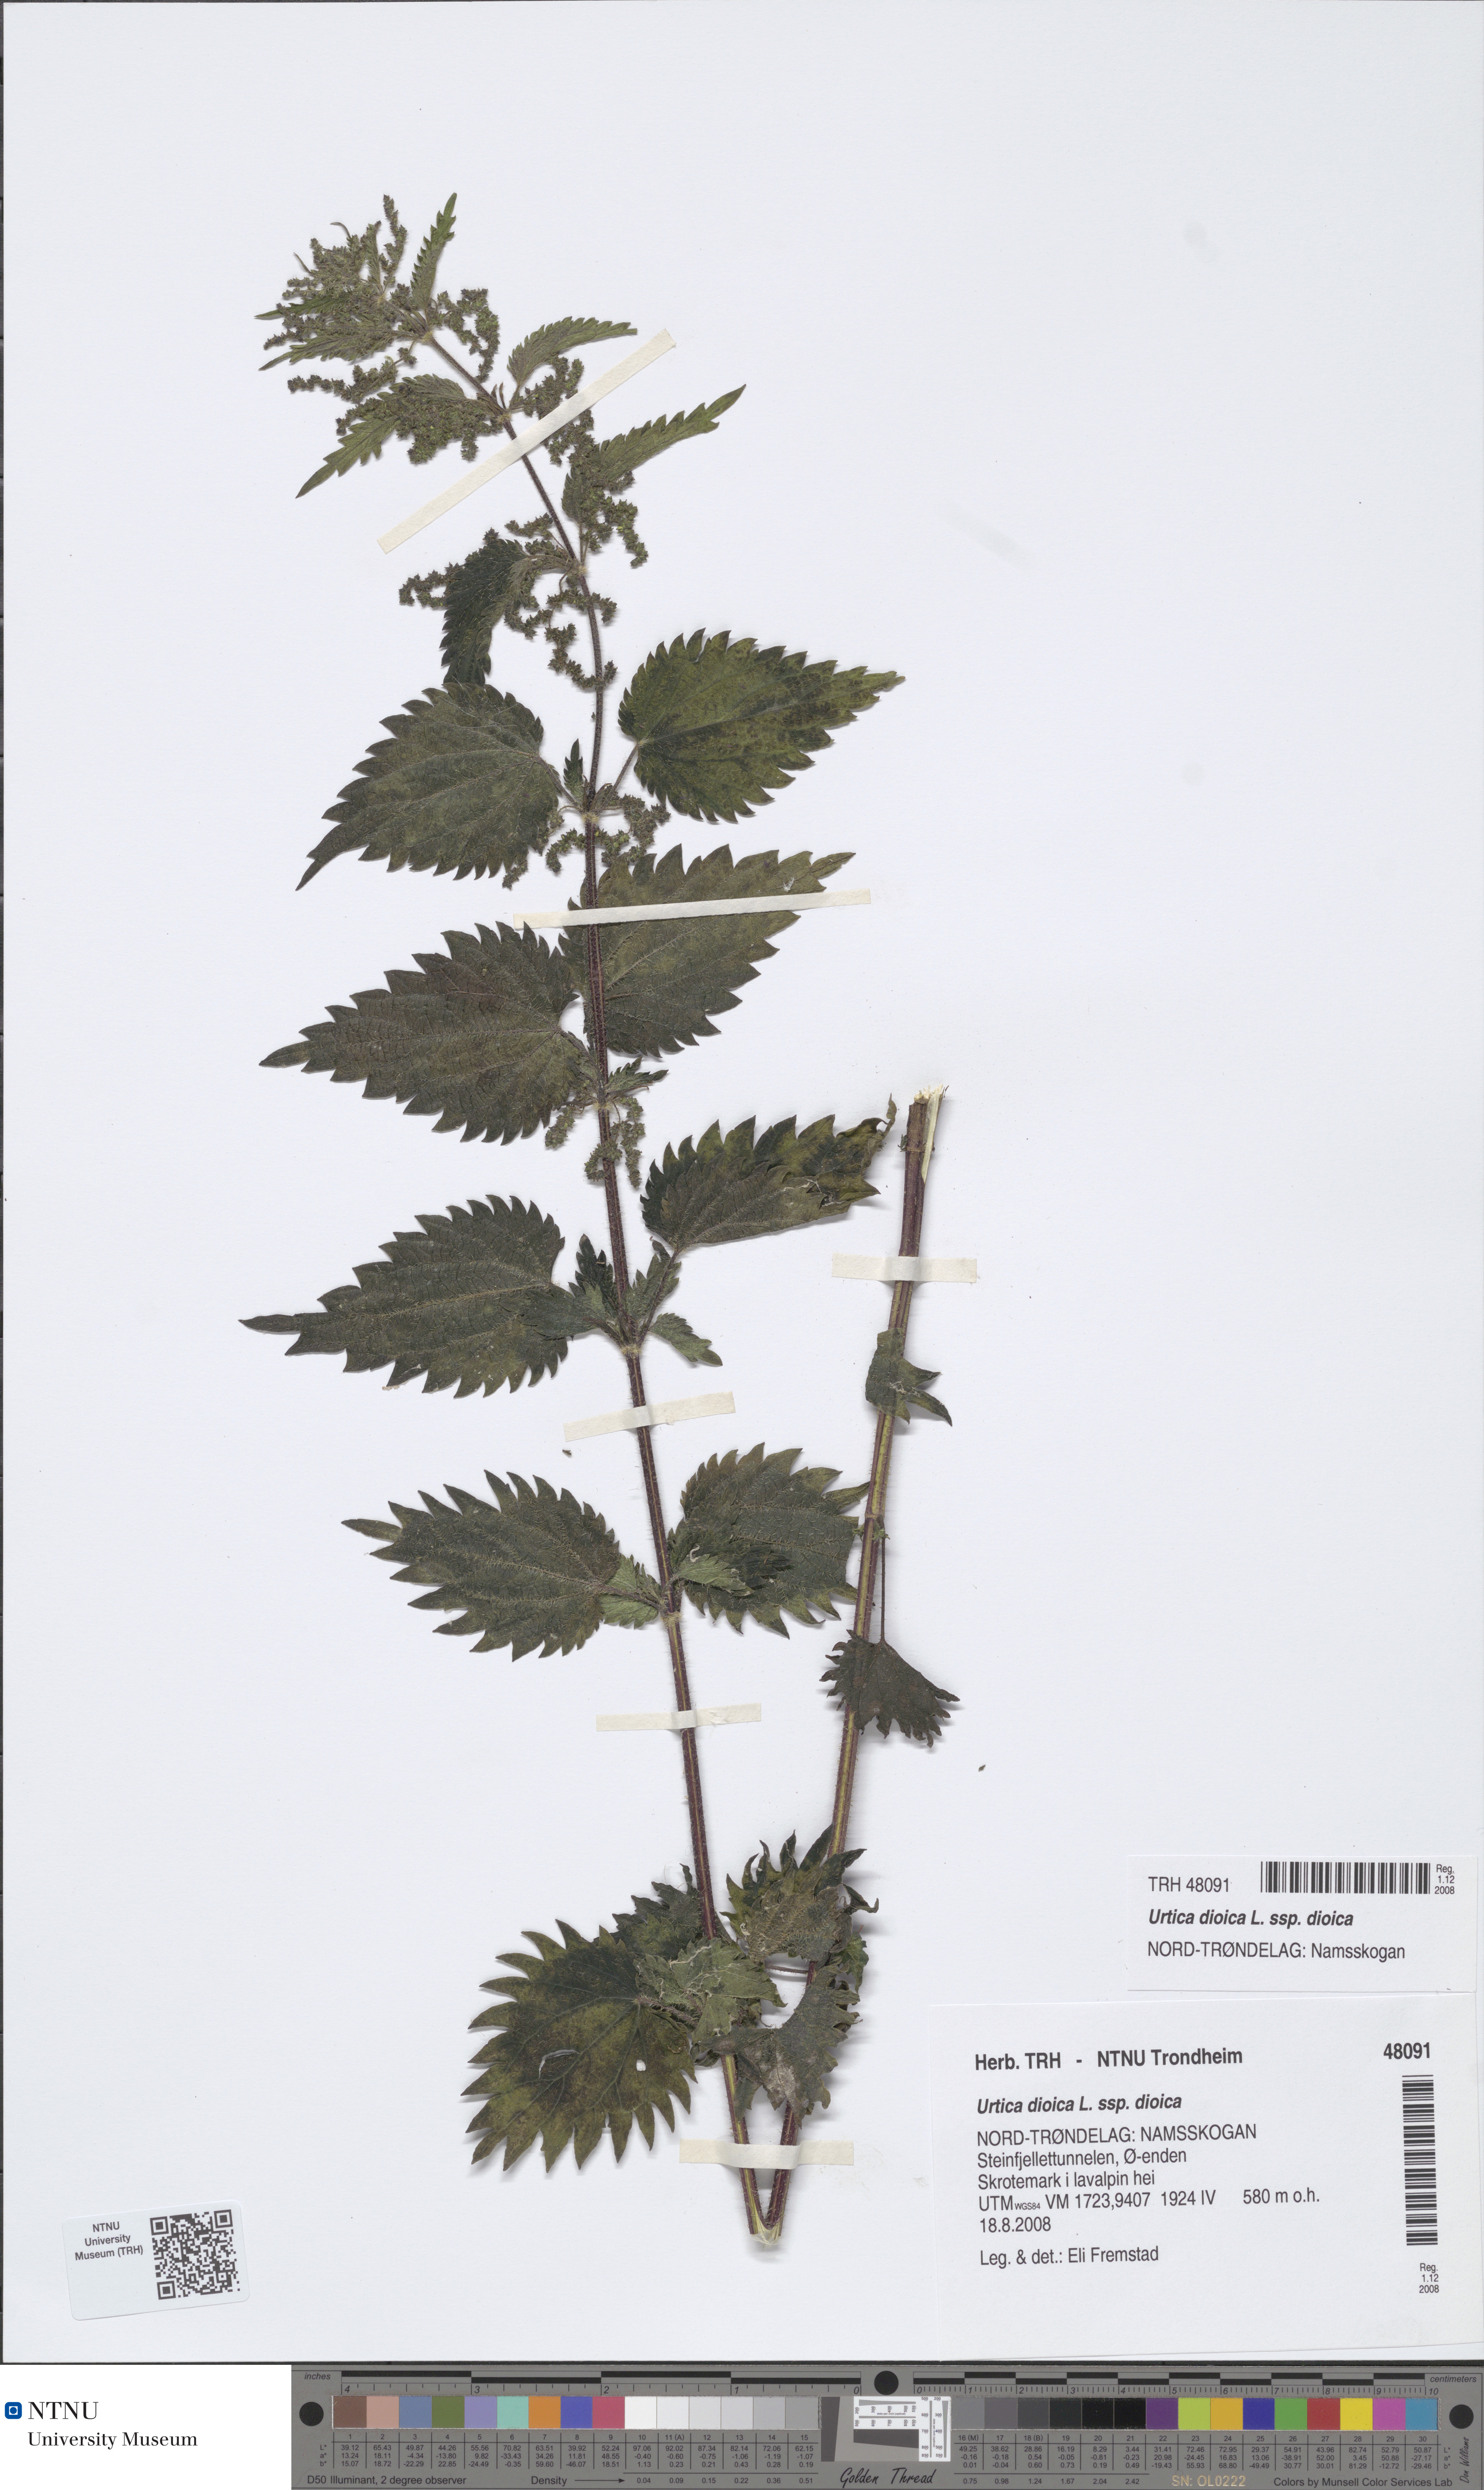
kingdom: Plantae
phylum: Tracheophyta
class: Magnoliopsida
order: Rosales
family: Urticaceae
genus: Urtica
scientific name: Urtica dioica
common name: Common nettle
